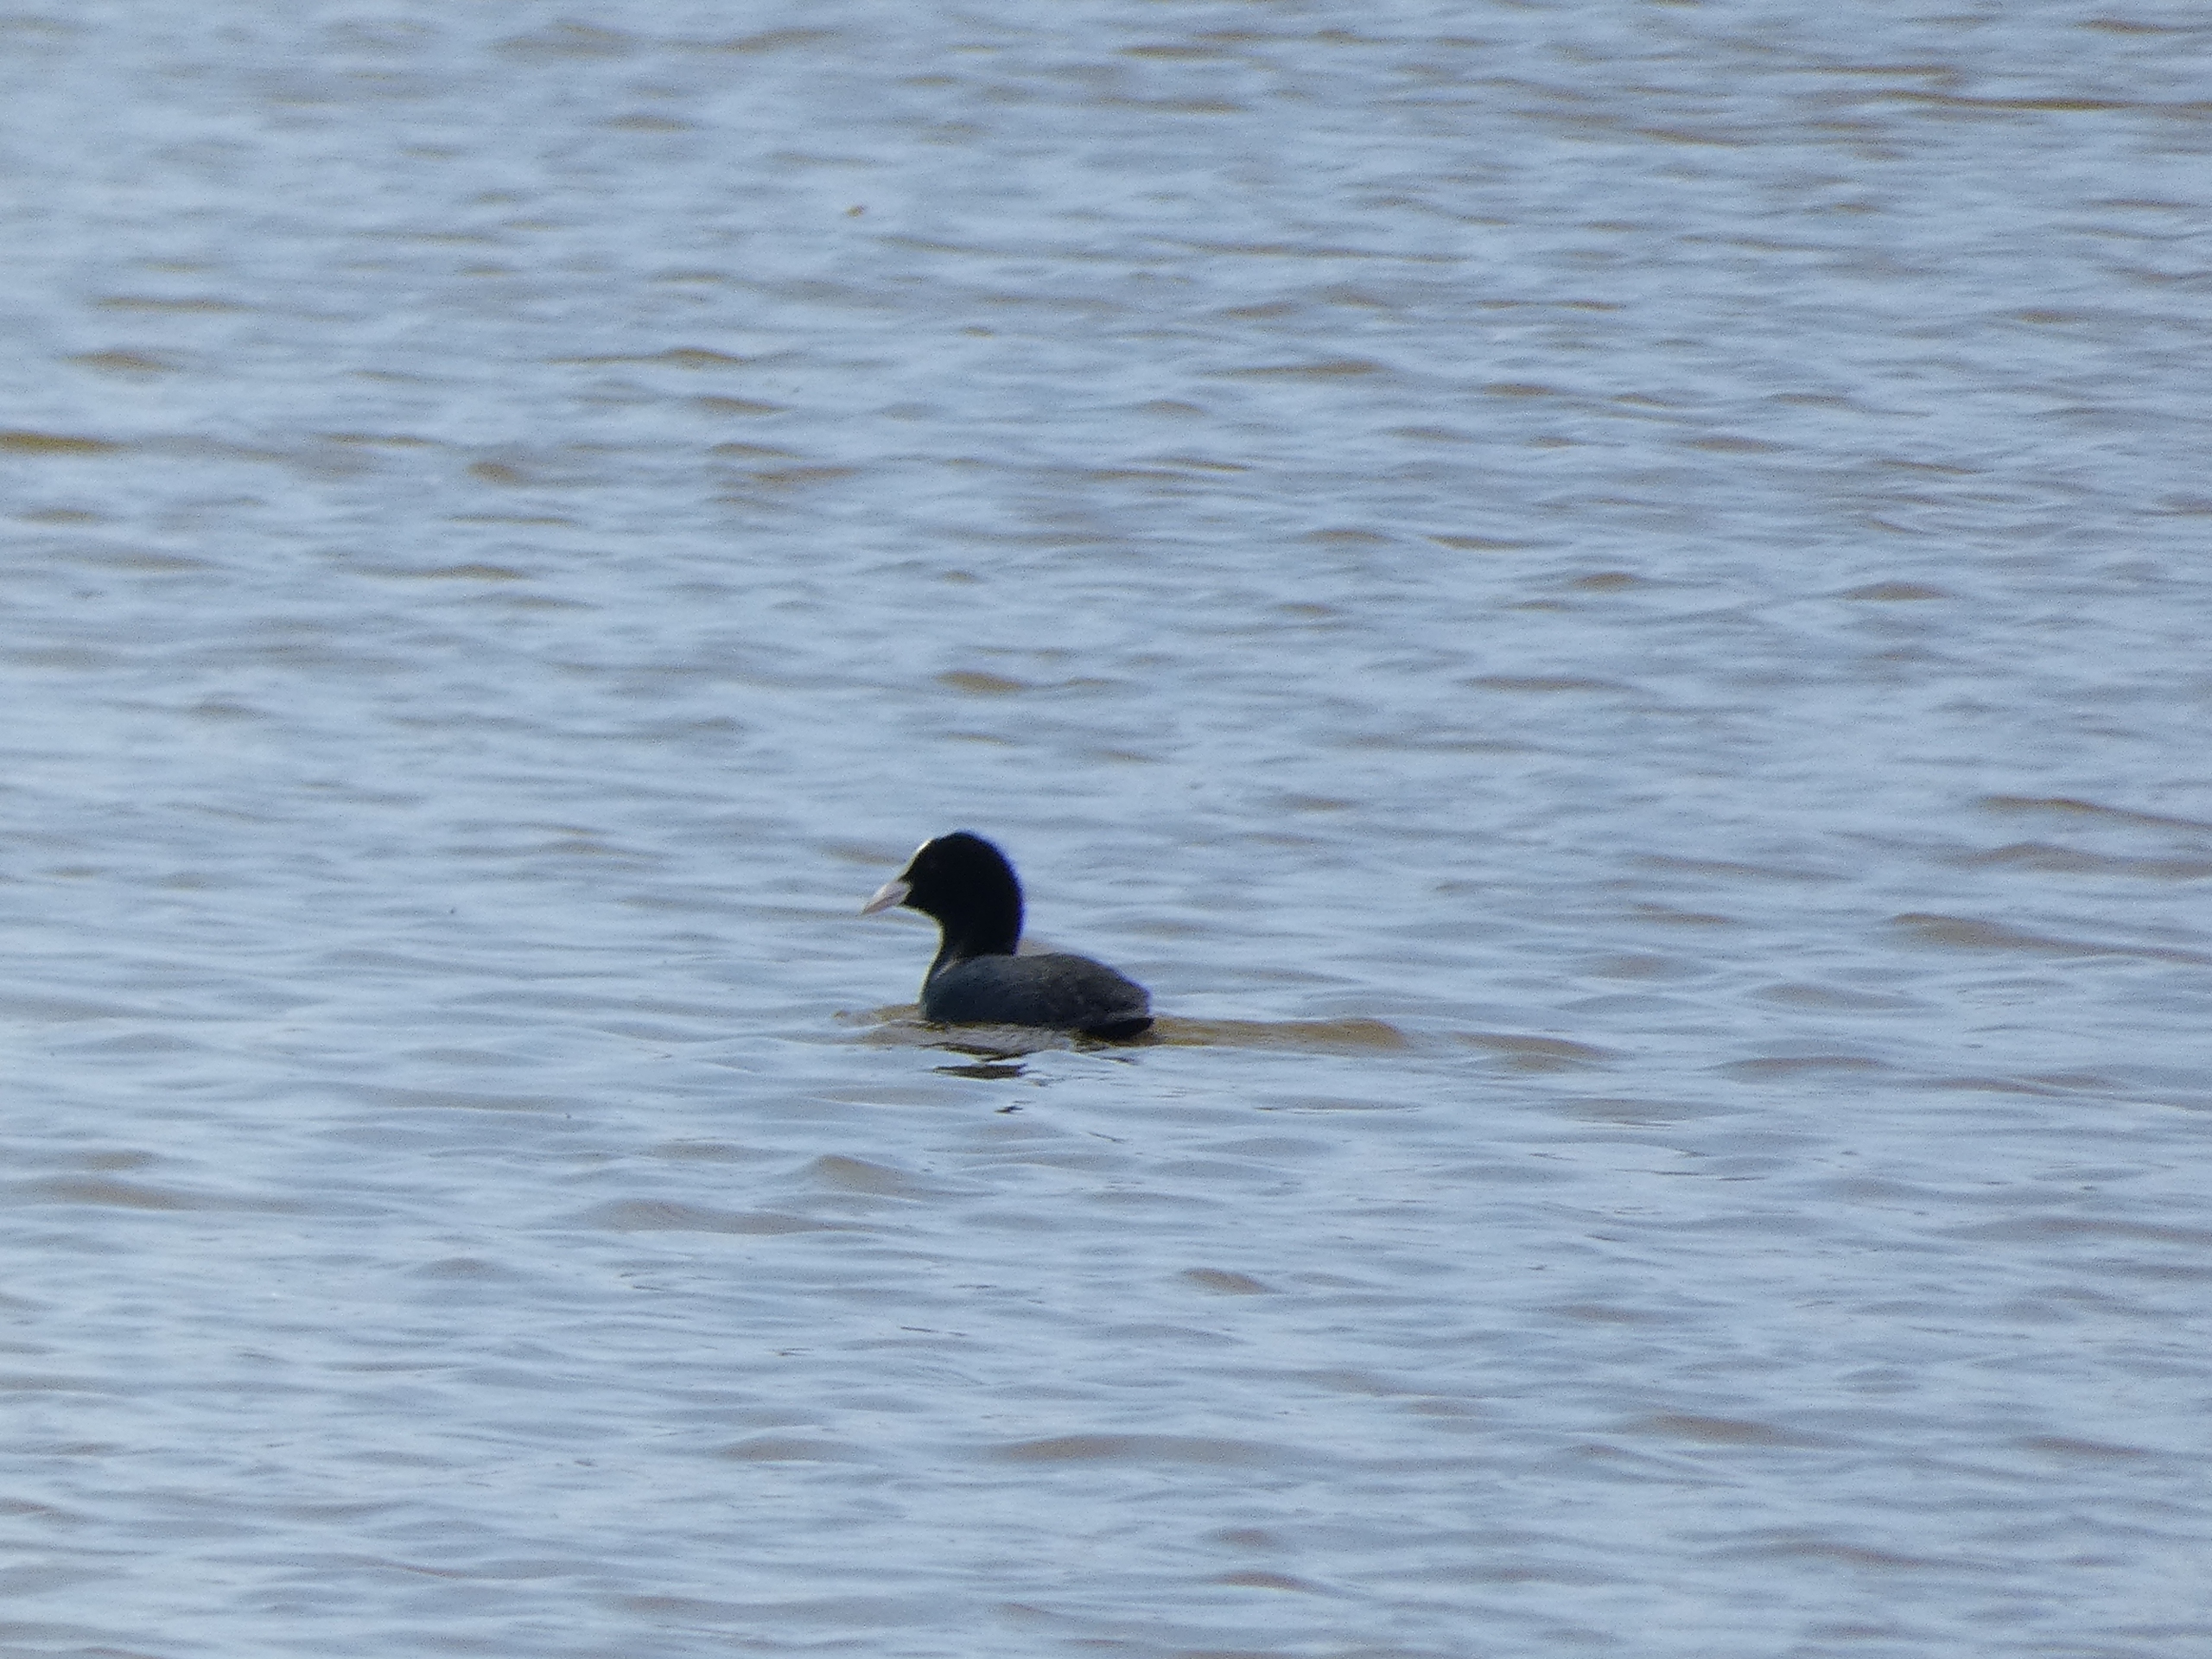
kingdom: Animalia
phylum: Chordata
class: Aves
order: Gruiformes
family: Rallidae
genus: Fulica
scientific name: Fulica atra
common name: Blishøne
